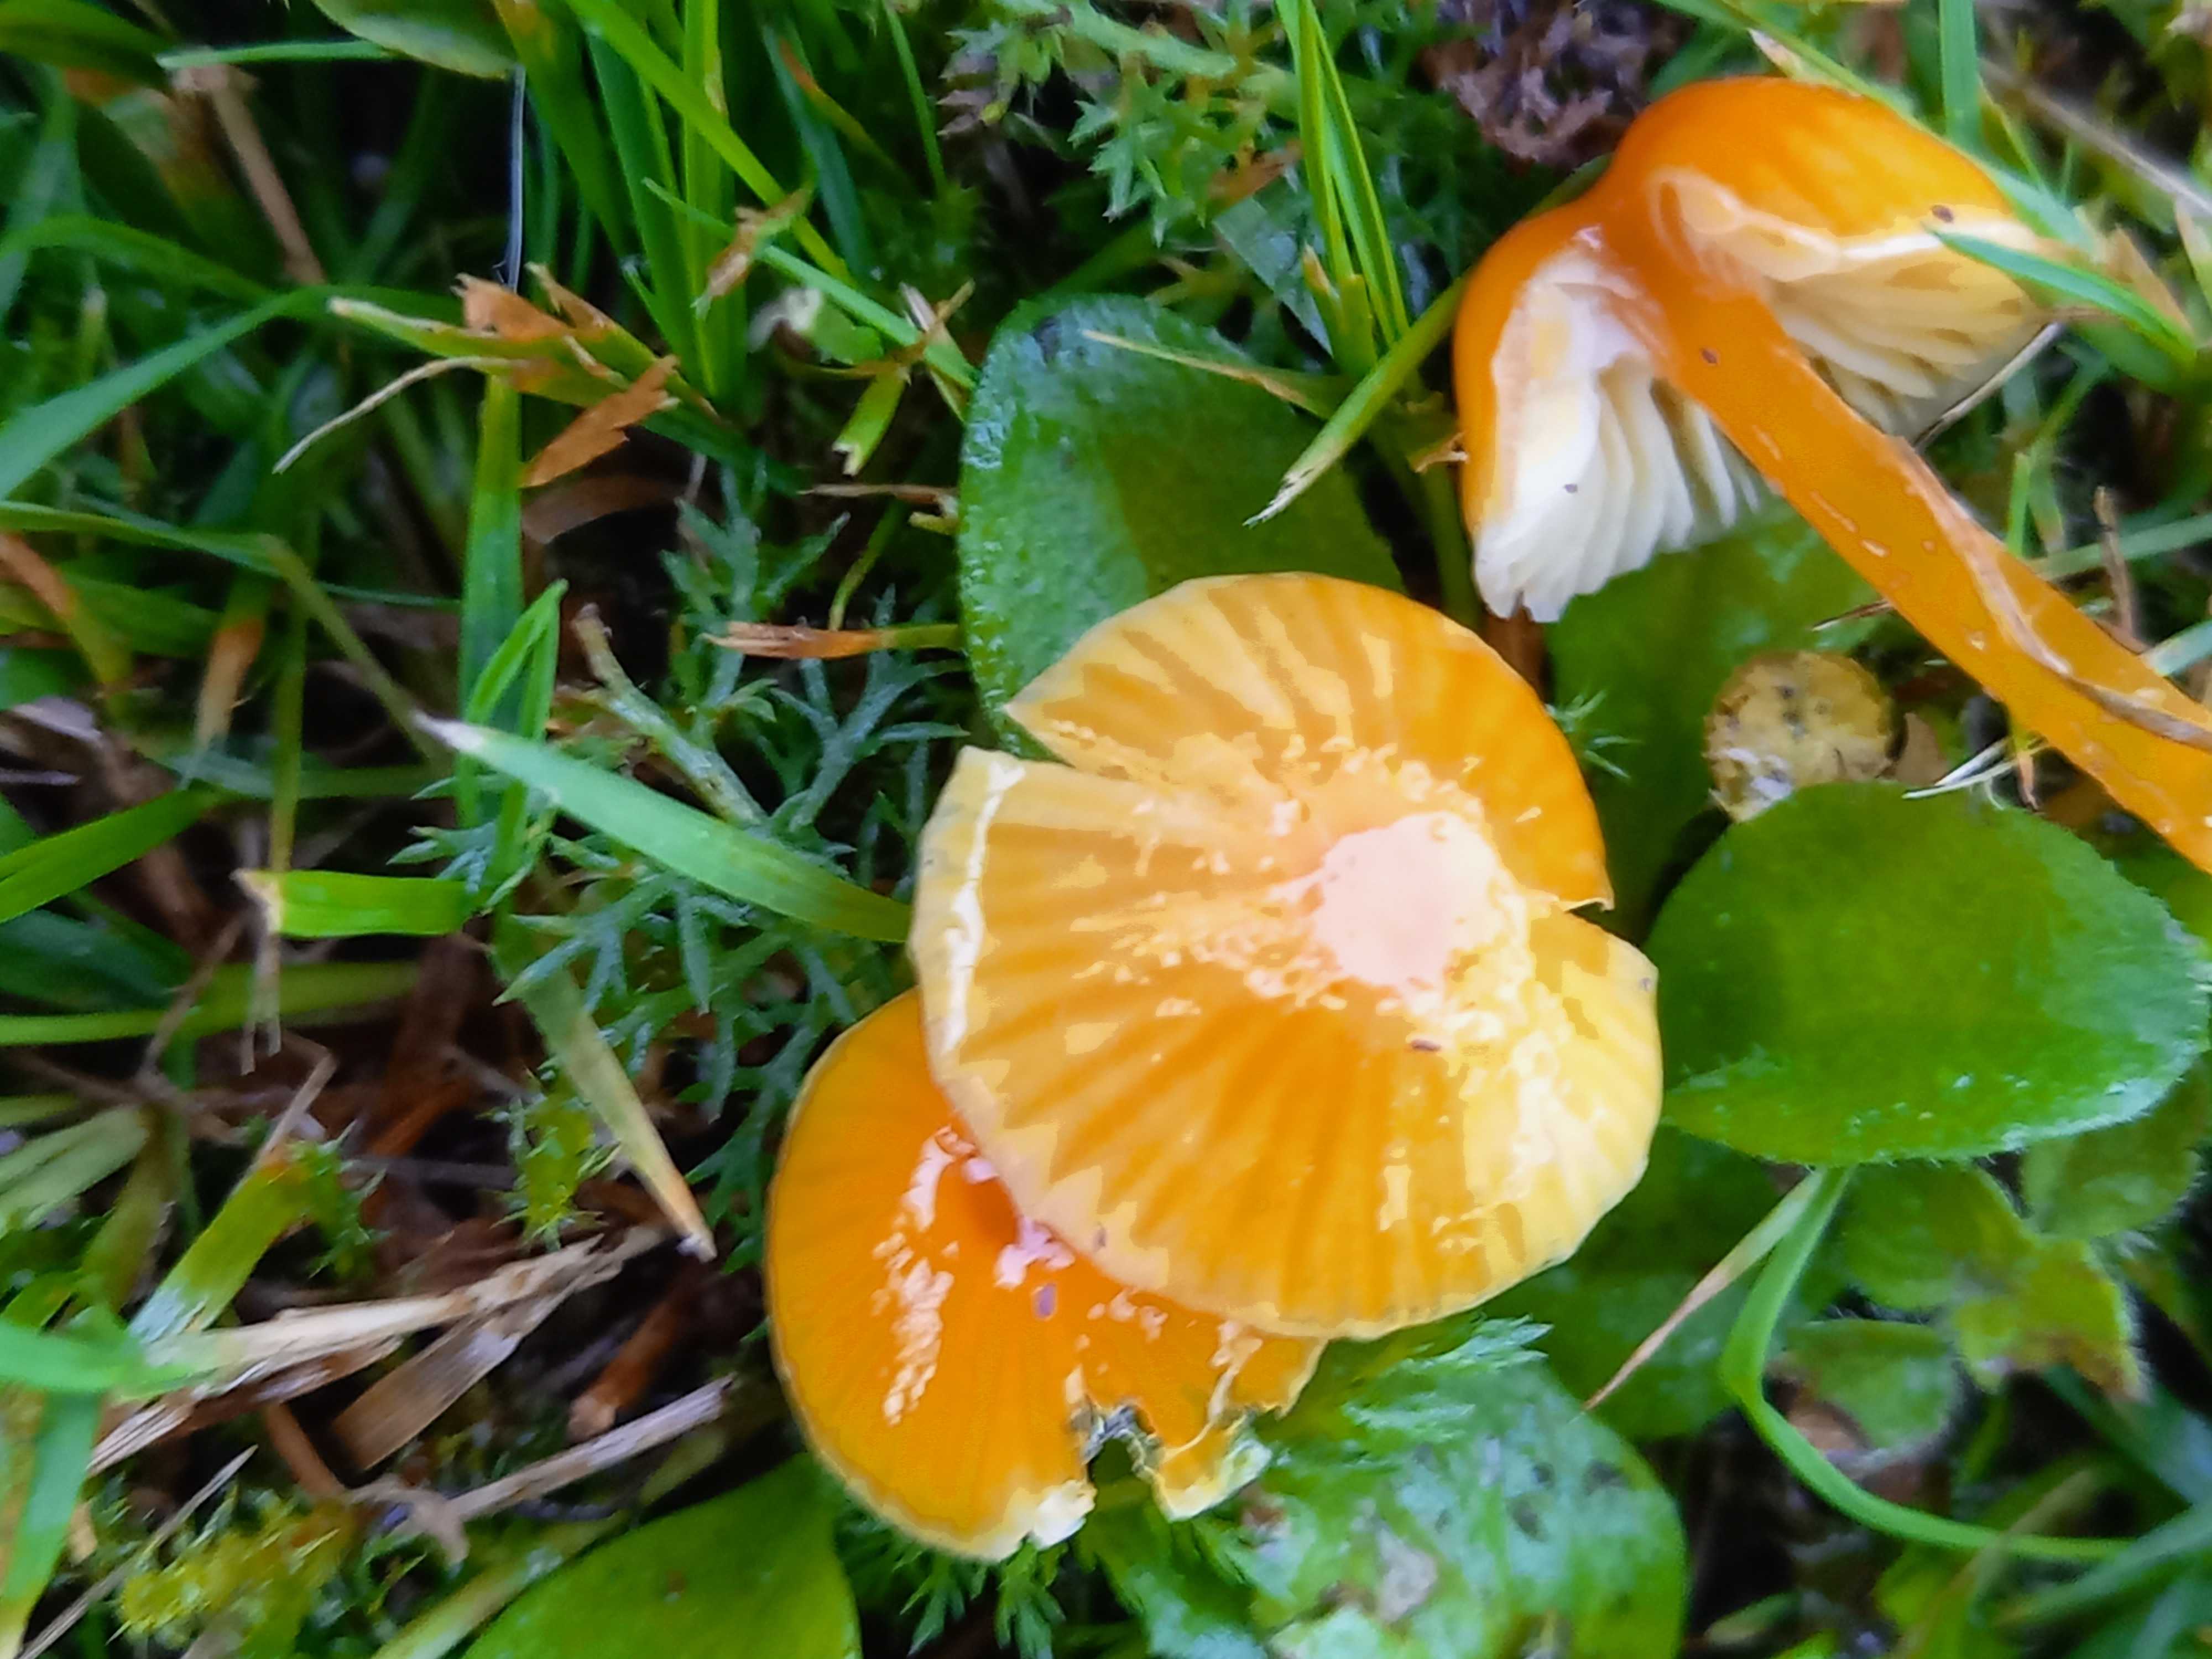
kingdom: Fungi
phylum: Basidiomycota
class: Agaricomycetes
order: Agaricales
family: Hygrophoraceae
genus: Hygrocybe
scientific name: Hygrocybe glutinipes
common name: slimstokket vokshat
